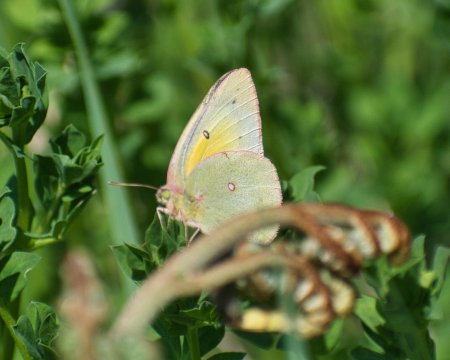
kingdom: Animalia
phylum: Arthropoda
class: Insecta
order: Lepidoptera
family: Pieridae
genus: Colias
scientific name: Colias philodice
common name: Clouded Sulphur
